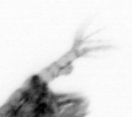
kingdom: Animalia
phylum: Arthropoda
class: Copepoda
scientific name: Copepoda
